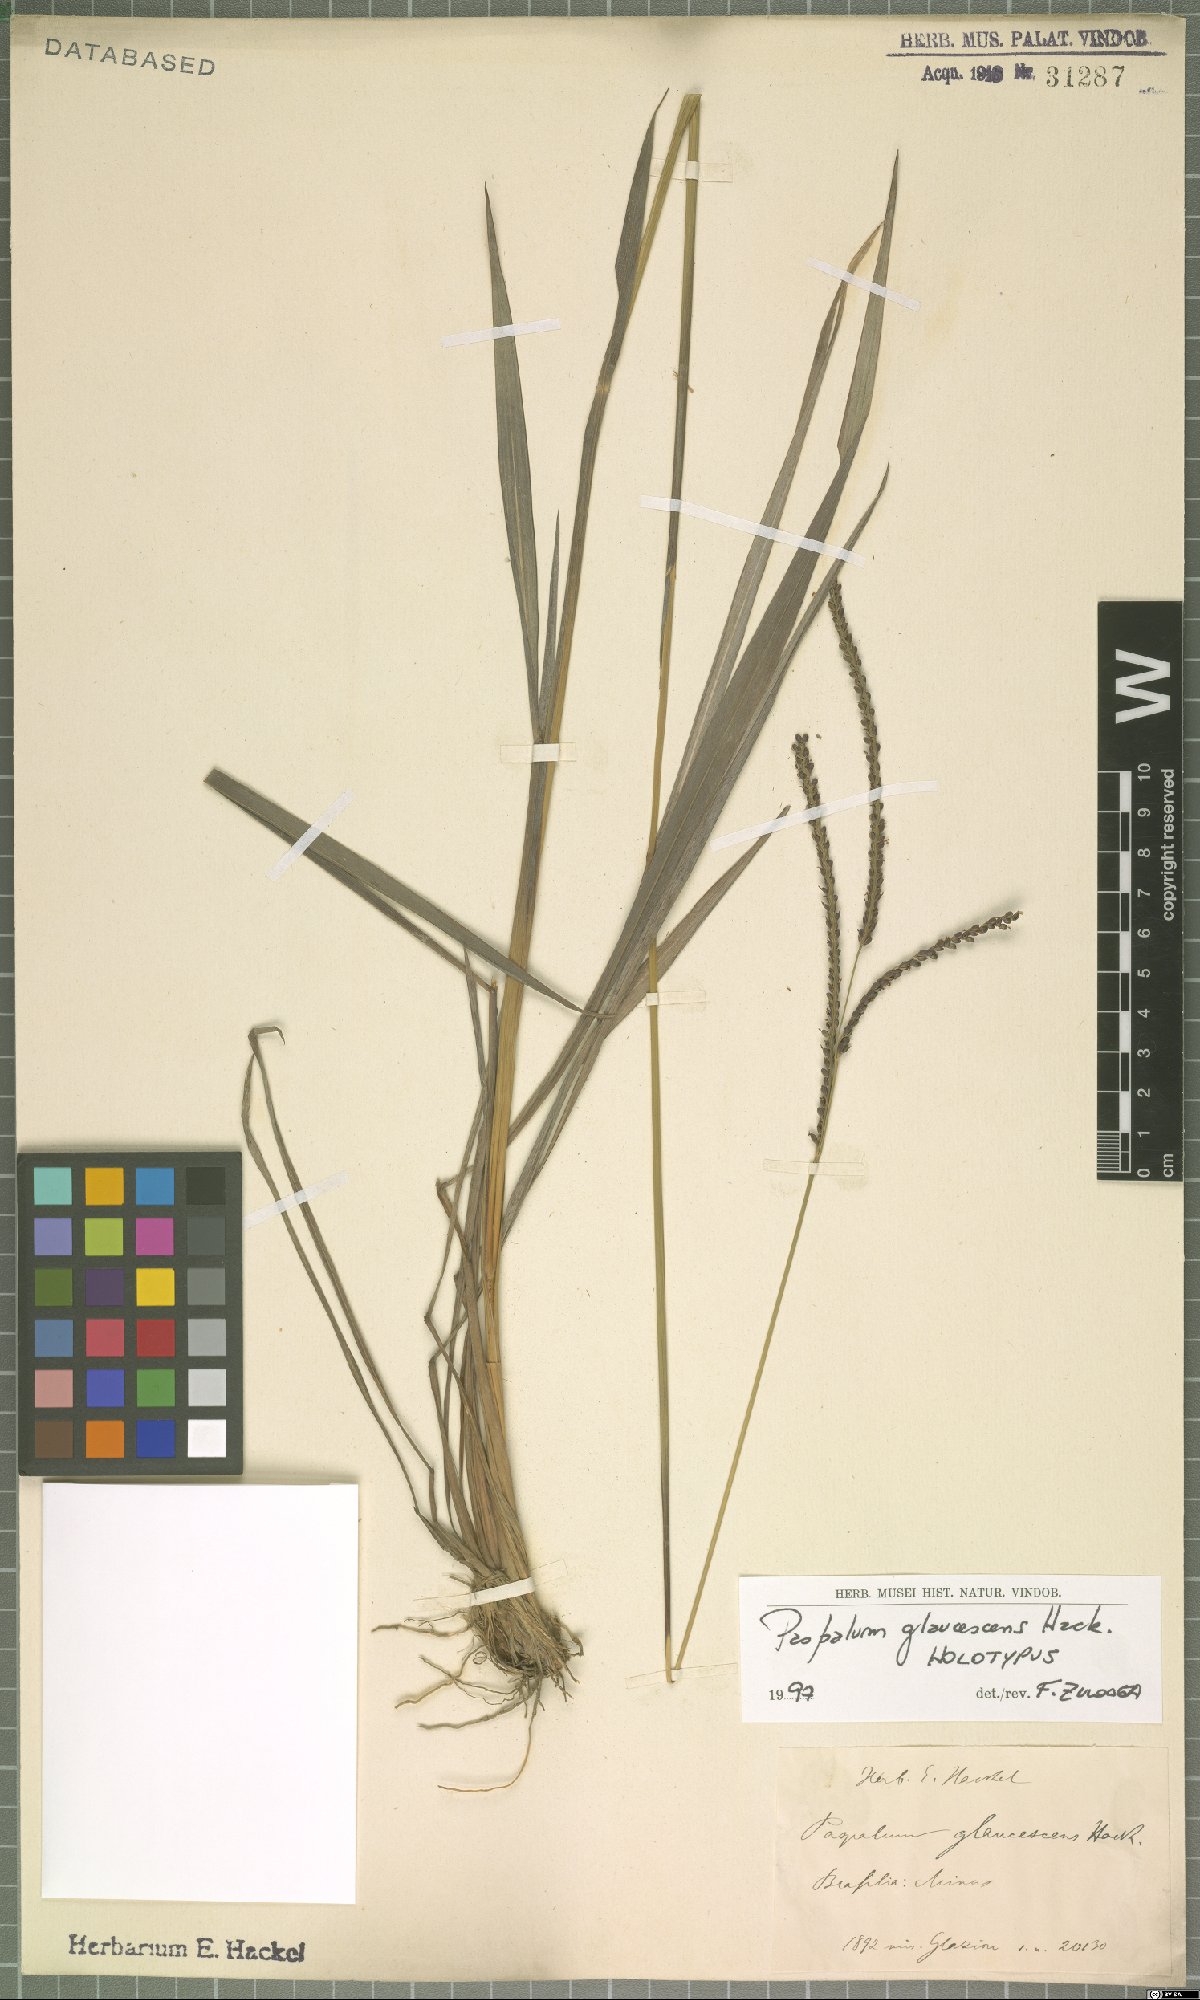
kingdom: Plantae
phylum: Tracheophyta
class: Liliopsida
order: Poales
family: Poaceae
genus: Paspalum
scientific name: Paspalum glaucescens
